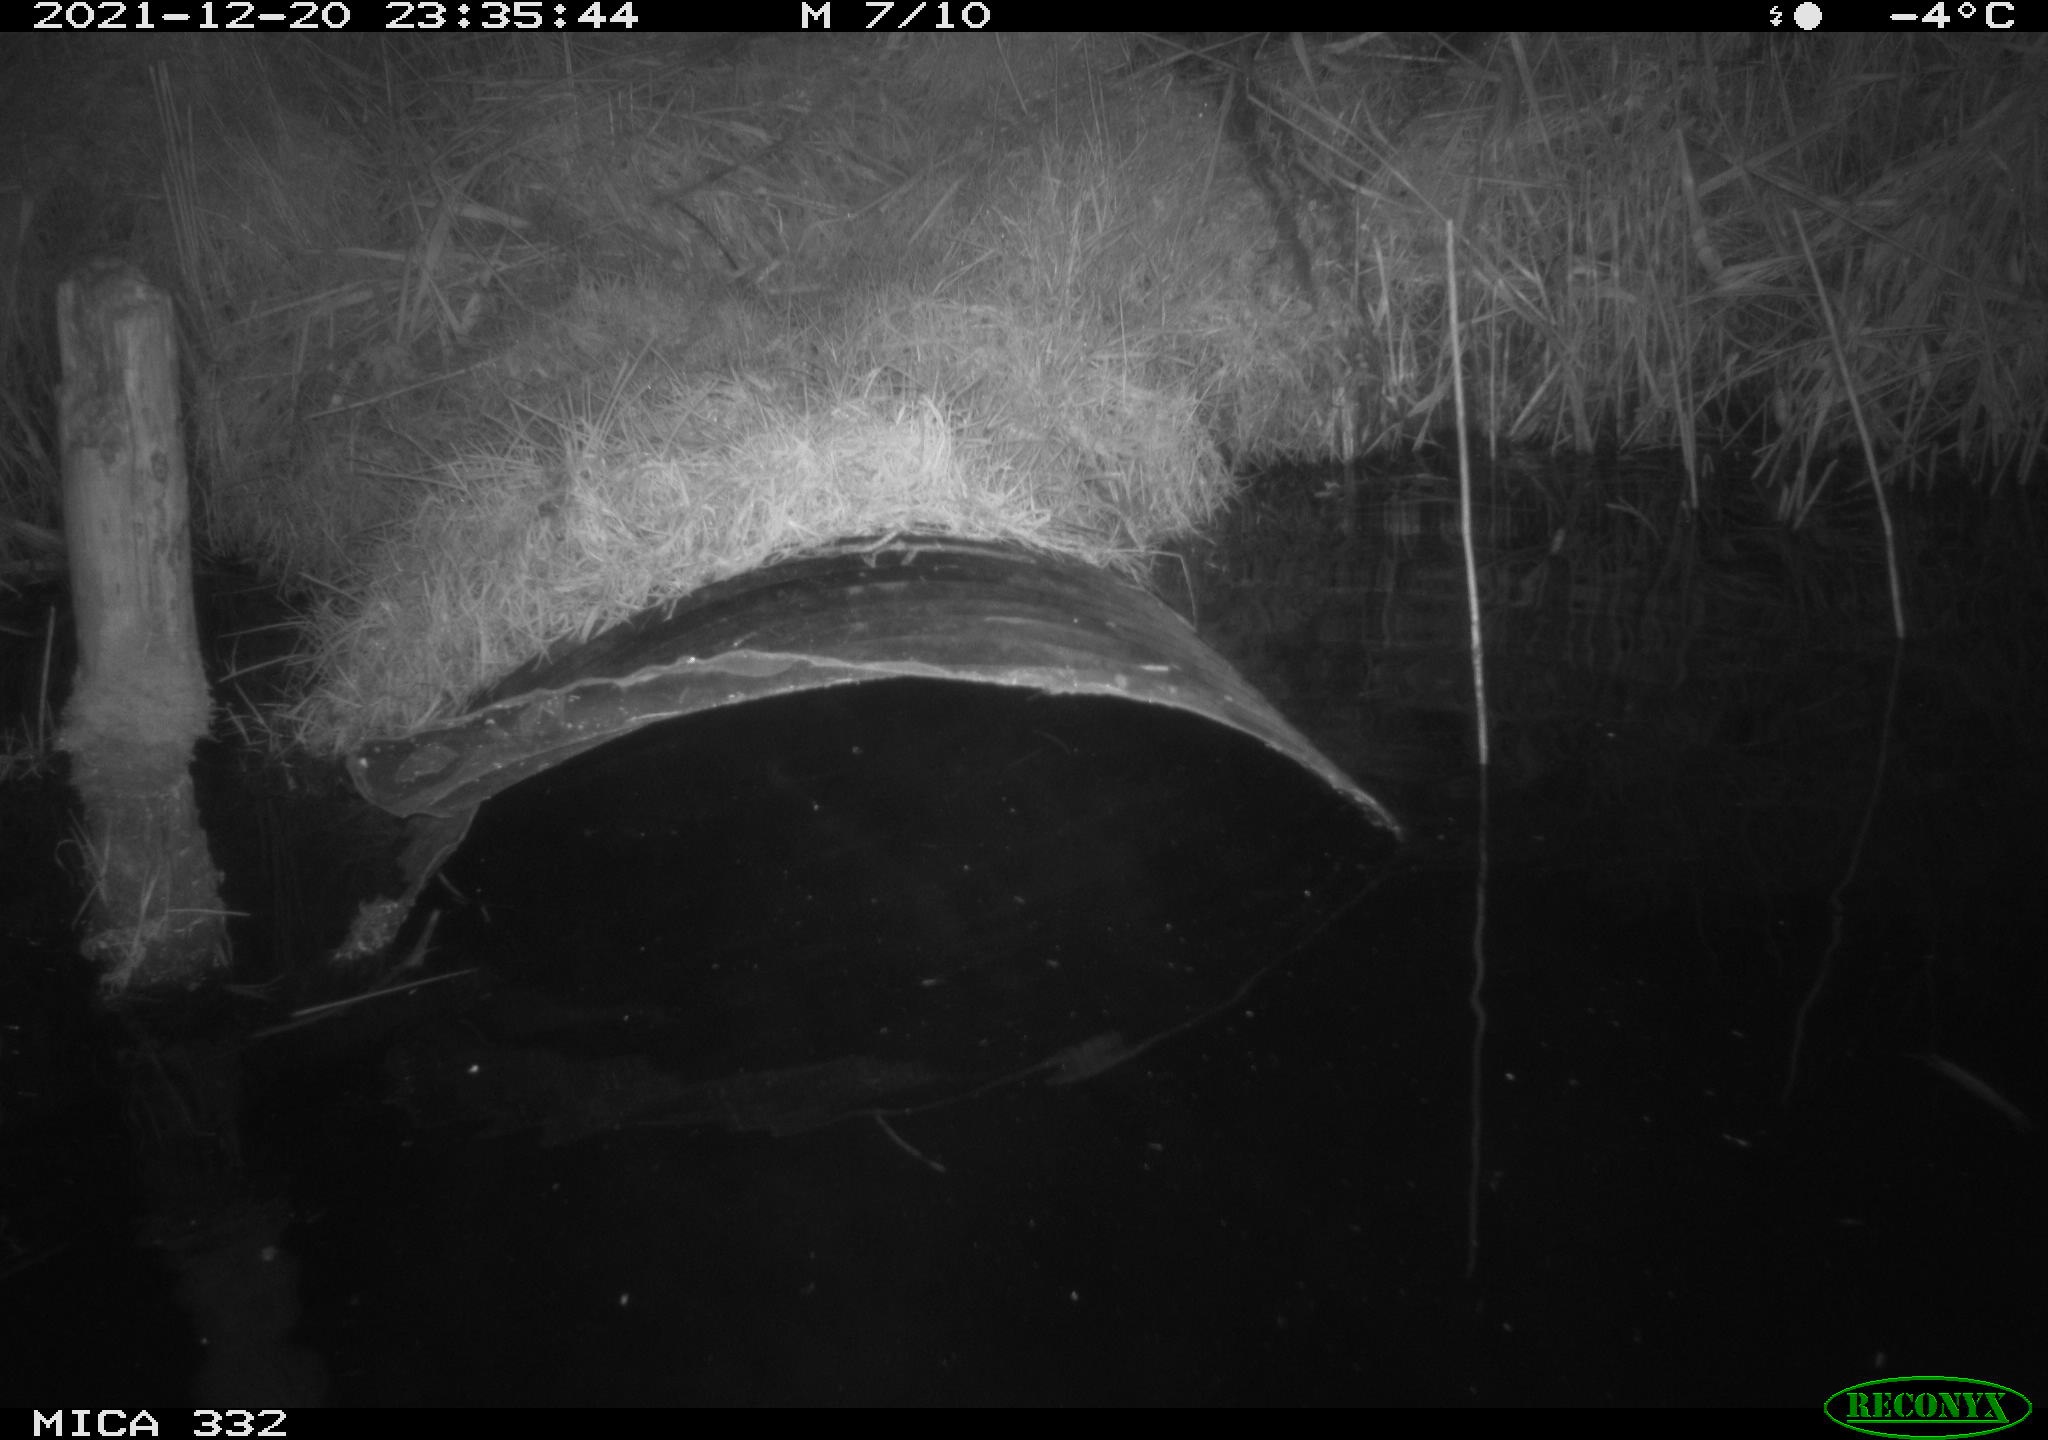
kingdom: Animalia
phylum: Chordata
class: Aves
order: Anseriformes
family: Anatidae
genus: Cygnus
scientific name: Cygnus olor
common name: Mute swan
